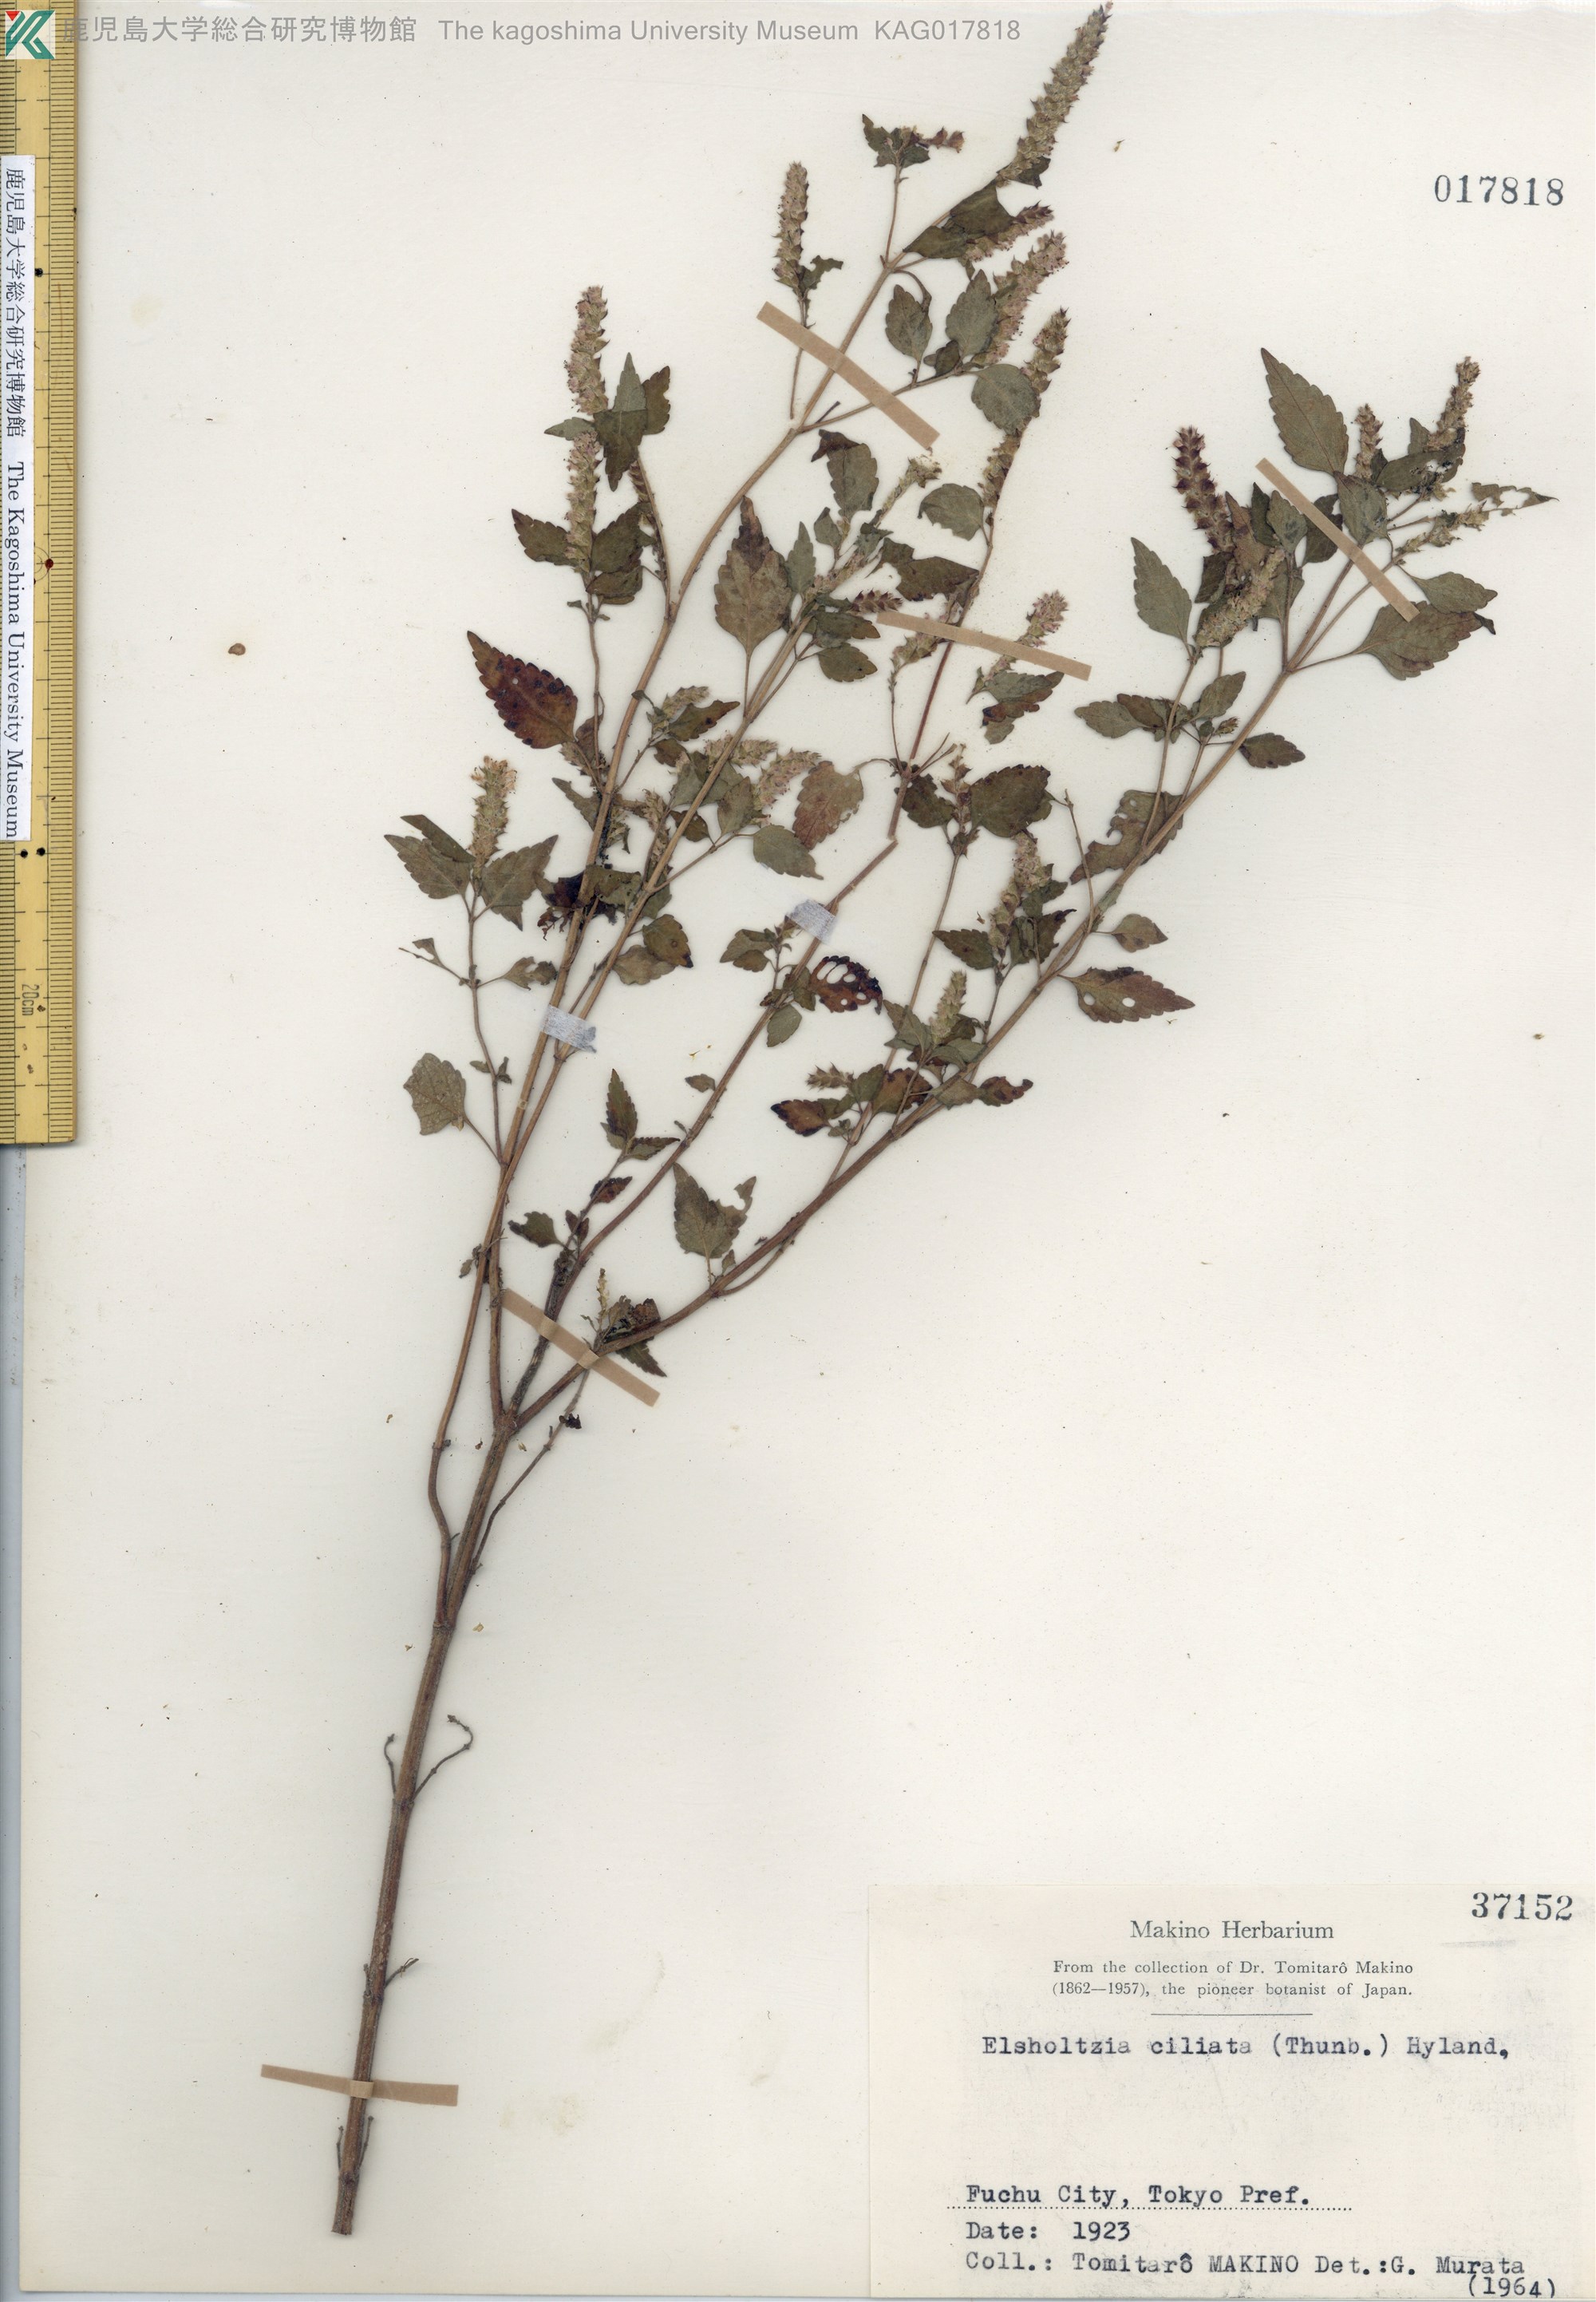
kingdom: Plantae
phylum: Tracheophyta
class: Magnoliopsida
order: Lamiales
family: Lamiaceae
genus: Elsholtzia
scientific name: Elsholtzia ciliata
